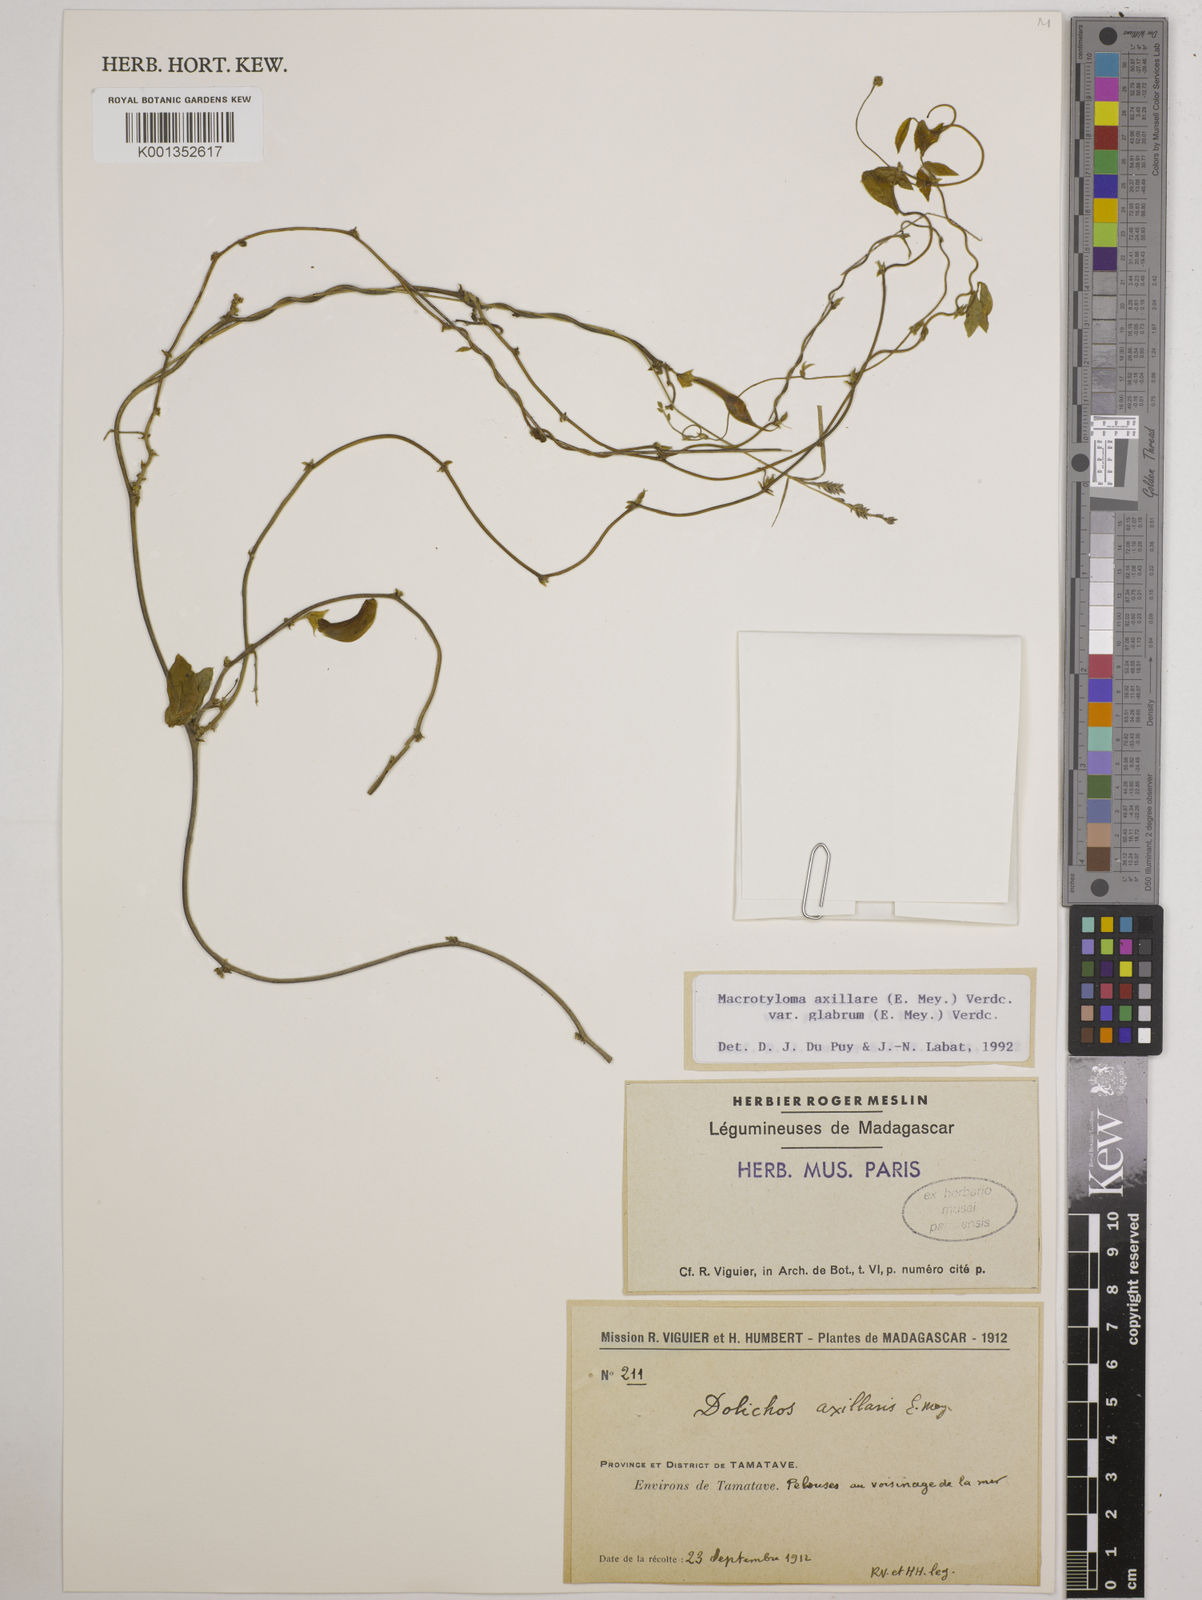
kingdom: Plantae
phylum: Tracheophyta
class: Magnoliopsida
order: Fabales
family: Fabaceae
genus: Macrotyloma
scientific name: Macrotyloma
